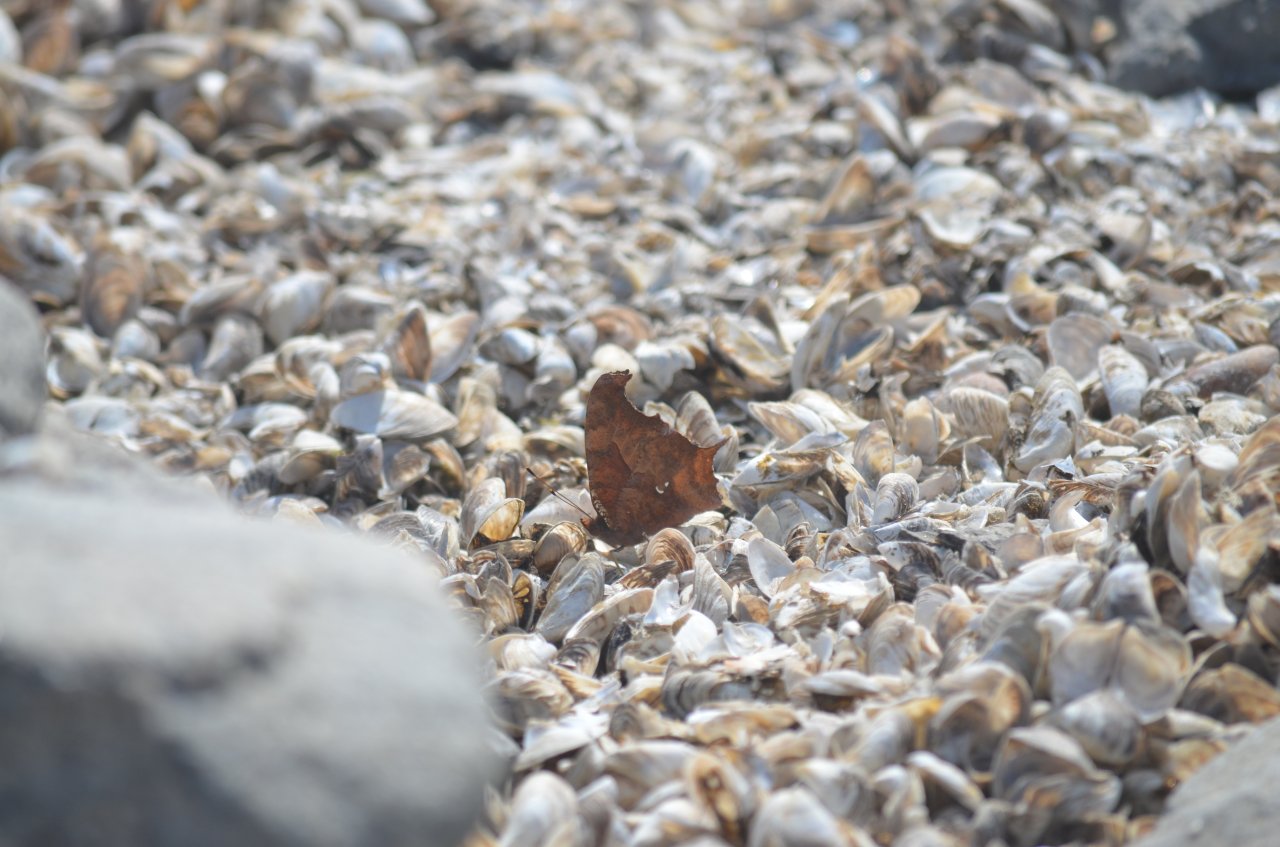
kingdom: Animalia
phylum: Arthropoda
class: Insecta
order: Lepidoptera
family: Nymphalidae
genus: Polygonia
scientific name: Polygonia interrogationis
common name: Question Mark
